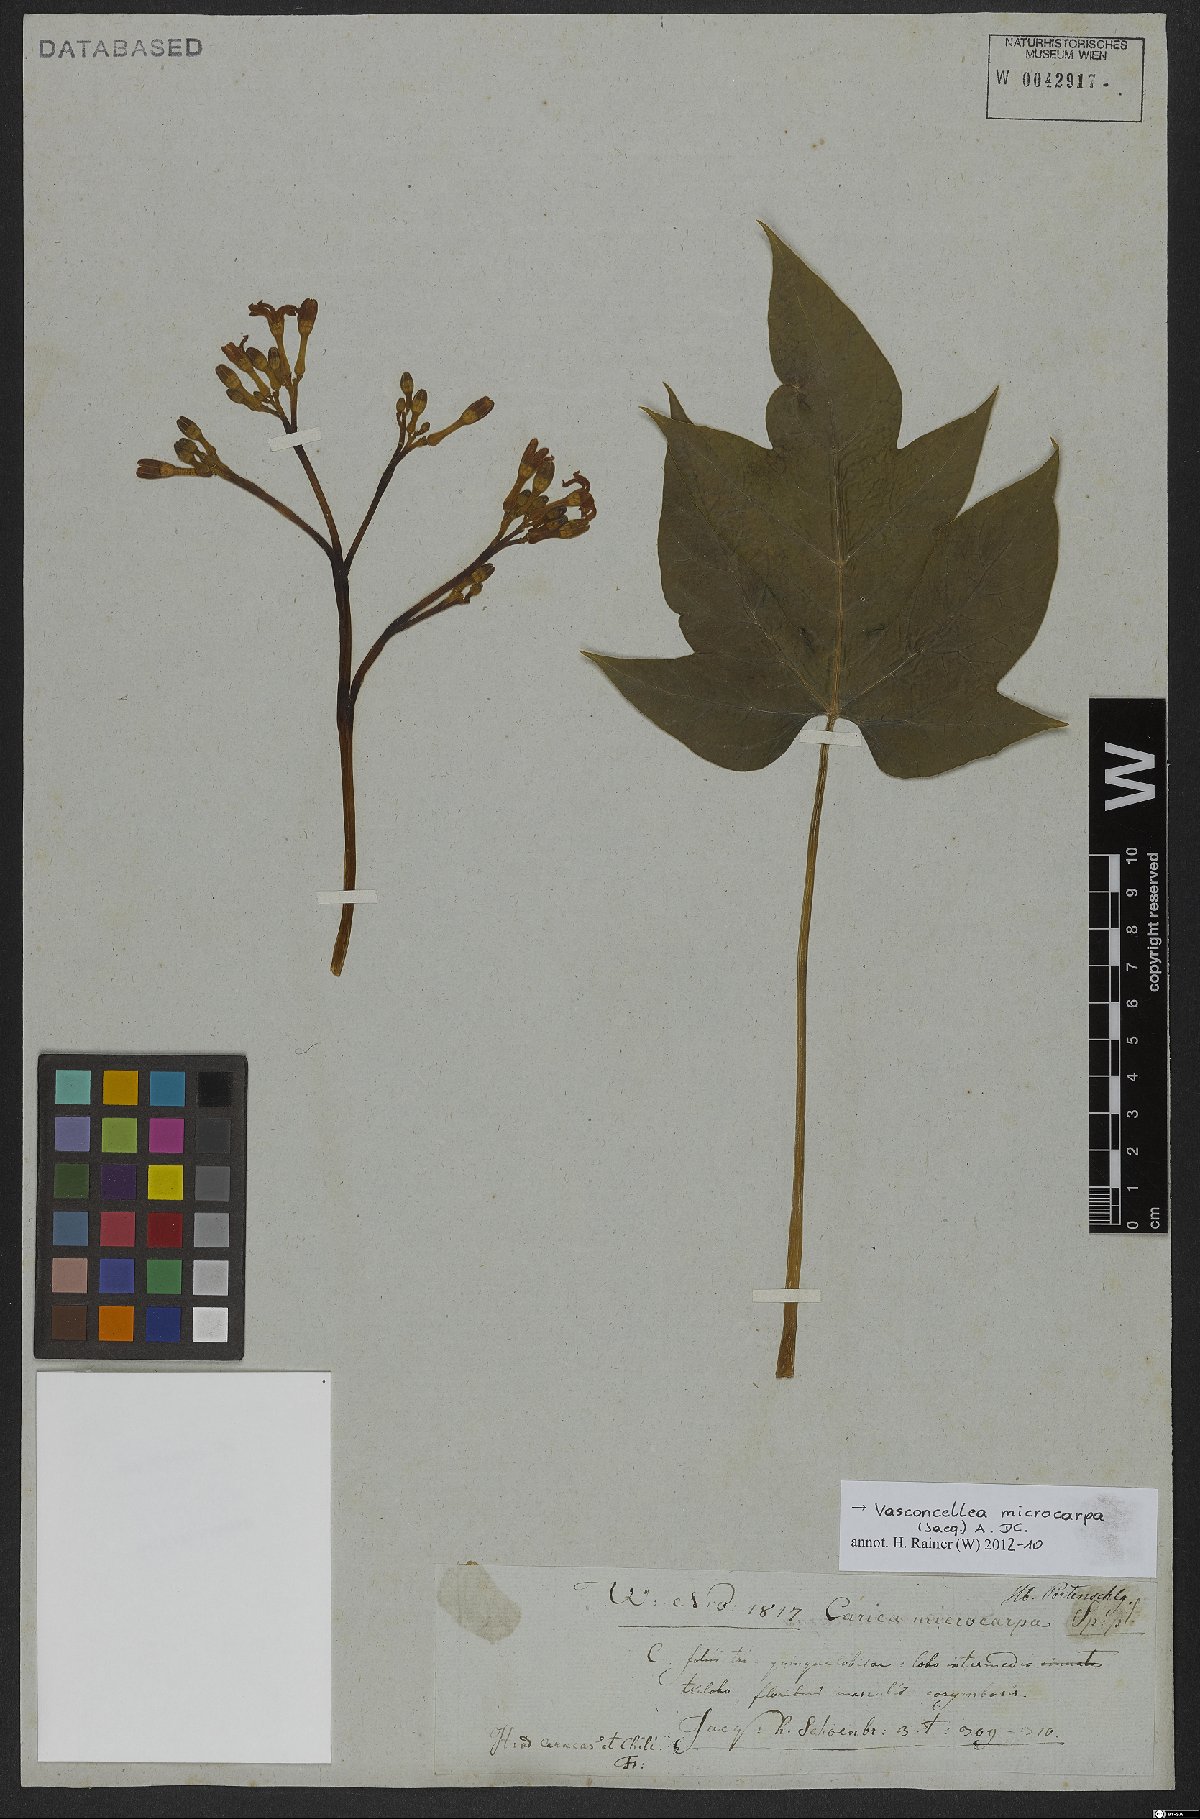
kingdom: Plantae
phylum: Tracheophyta
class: Magnoliopsida
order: Brassicales
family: Caricaceae
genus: Vasconcellea
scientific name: Vasconcellea microcarpa
